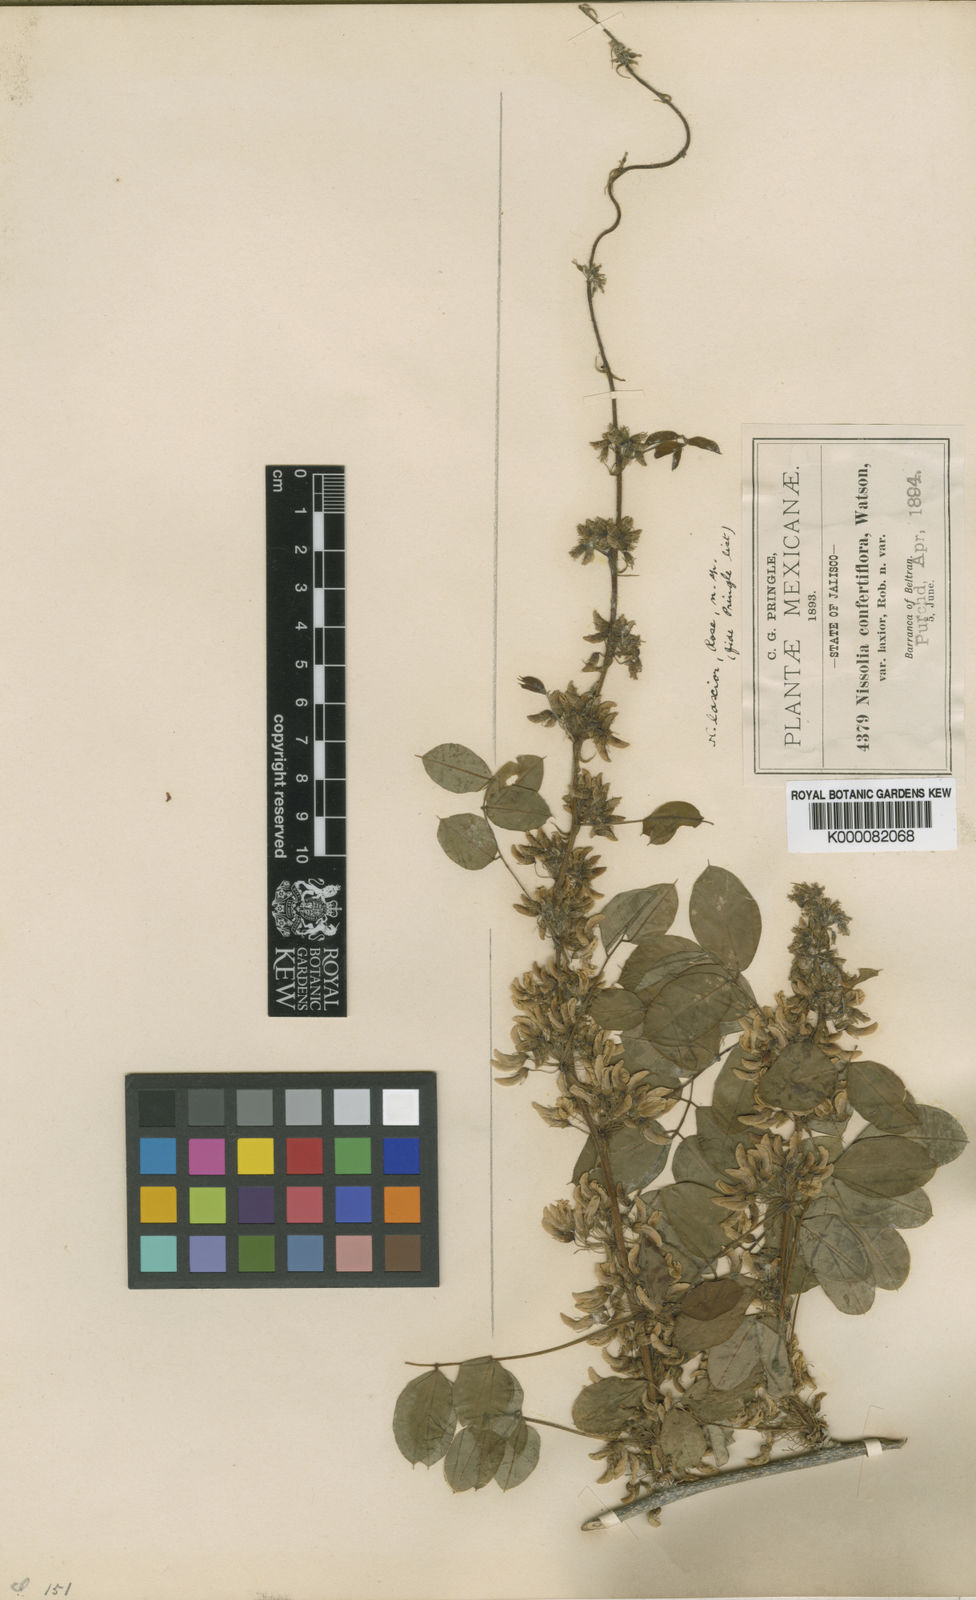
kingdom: Plantae
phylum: Tracheophyta
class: Magnoliopsida
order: Fabales
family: Fabaceae
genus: Nissolia
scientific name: Nissolia laxior
